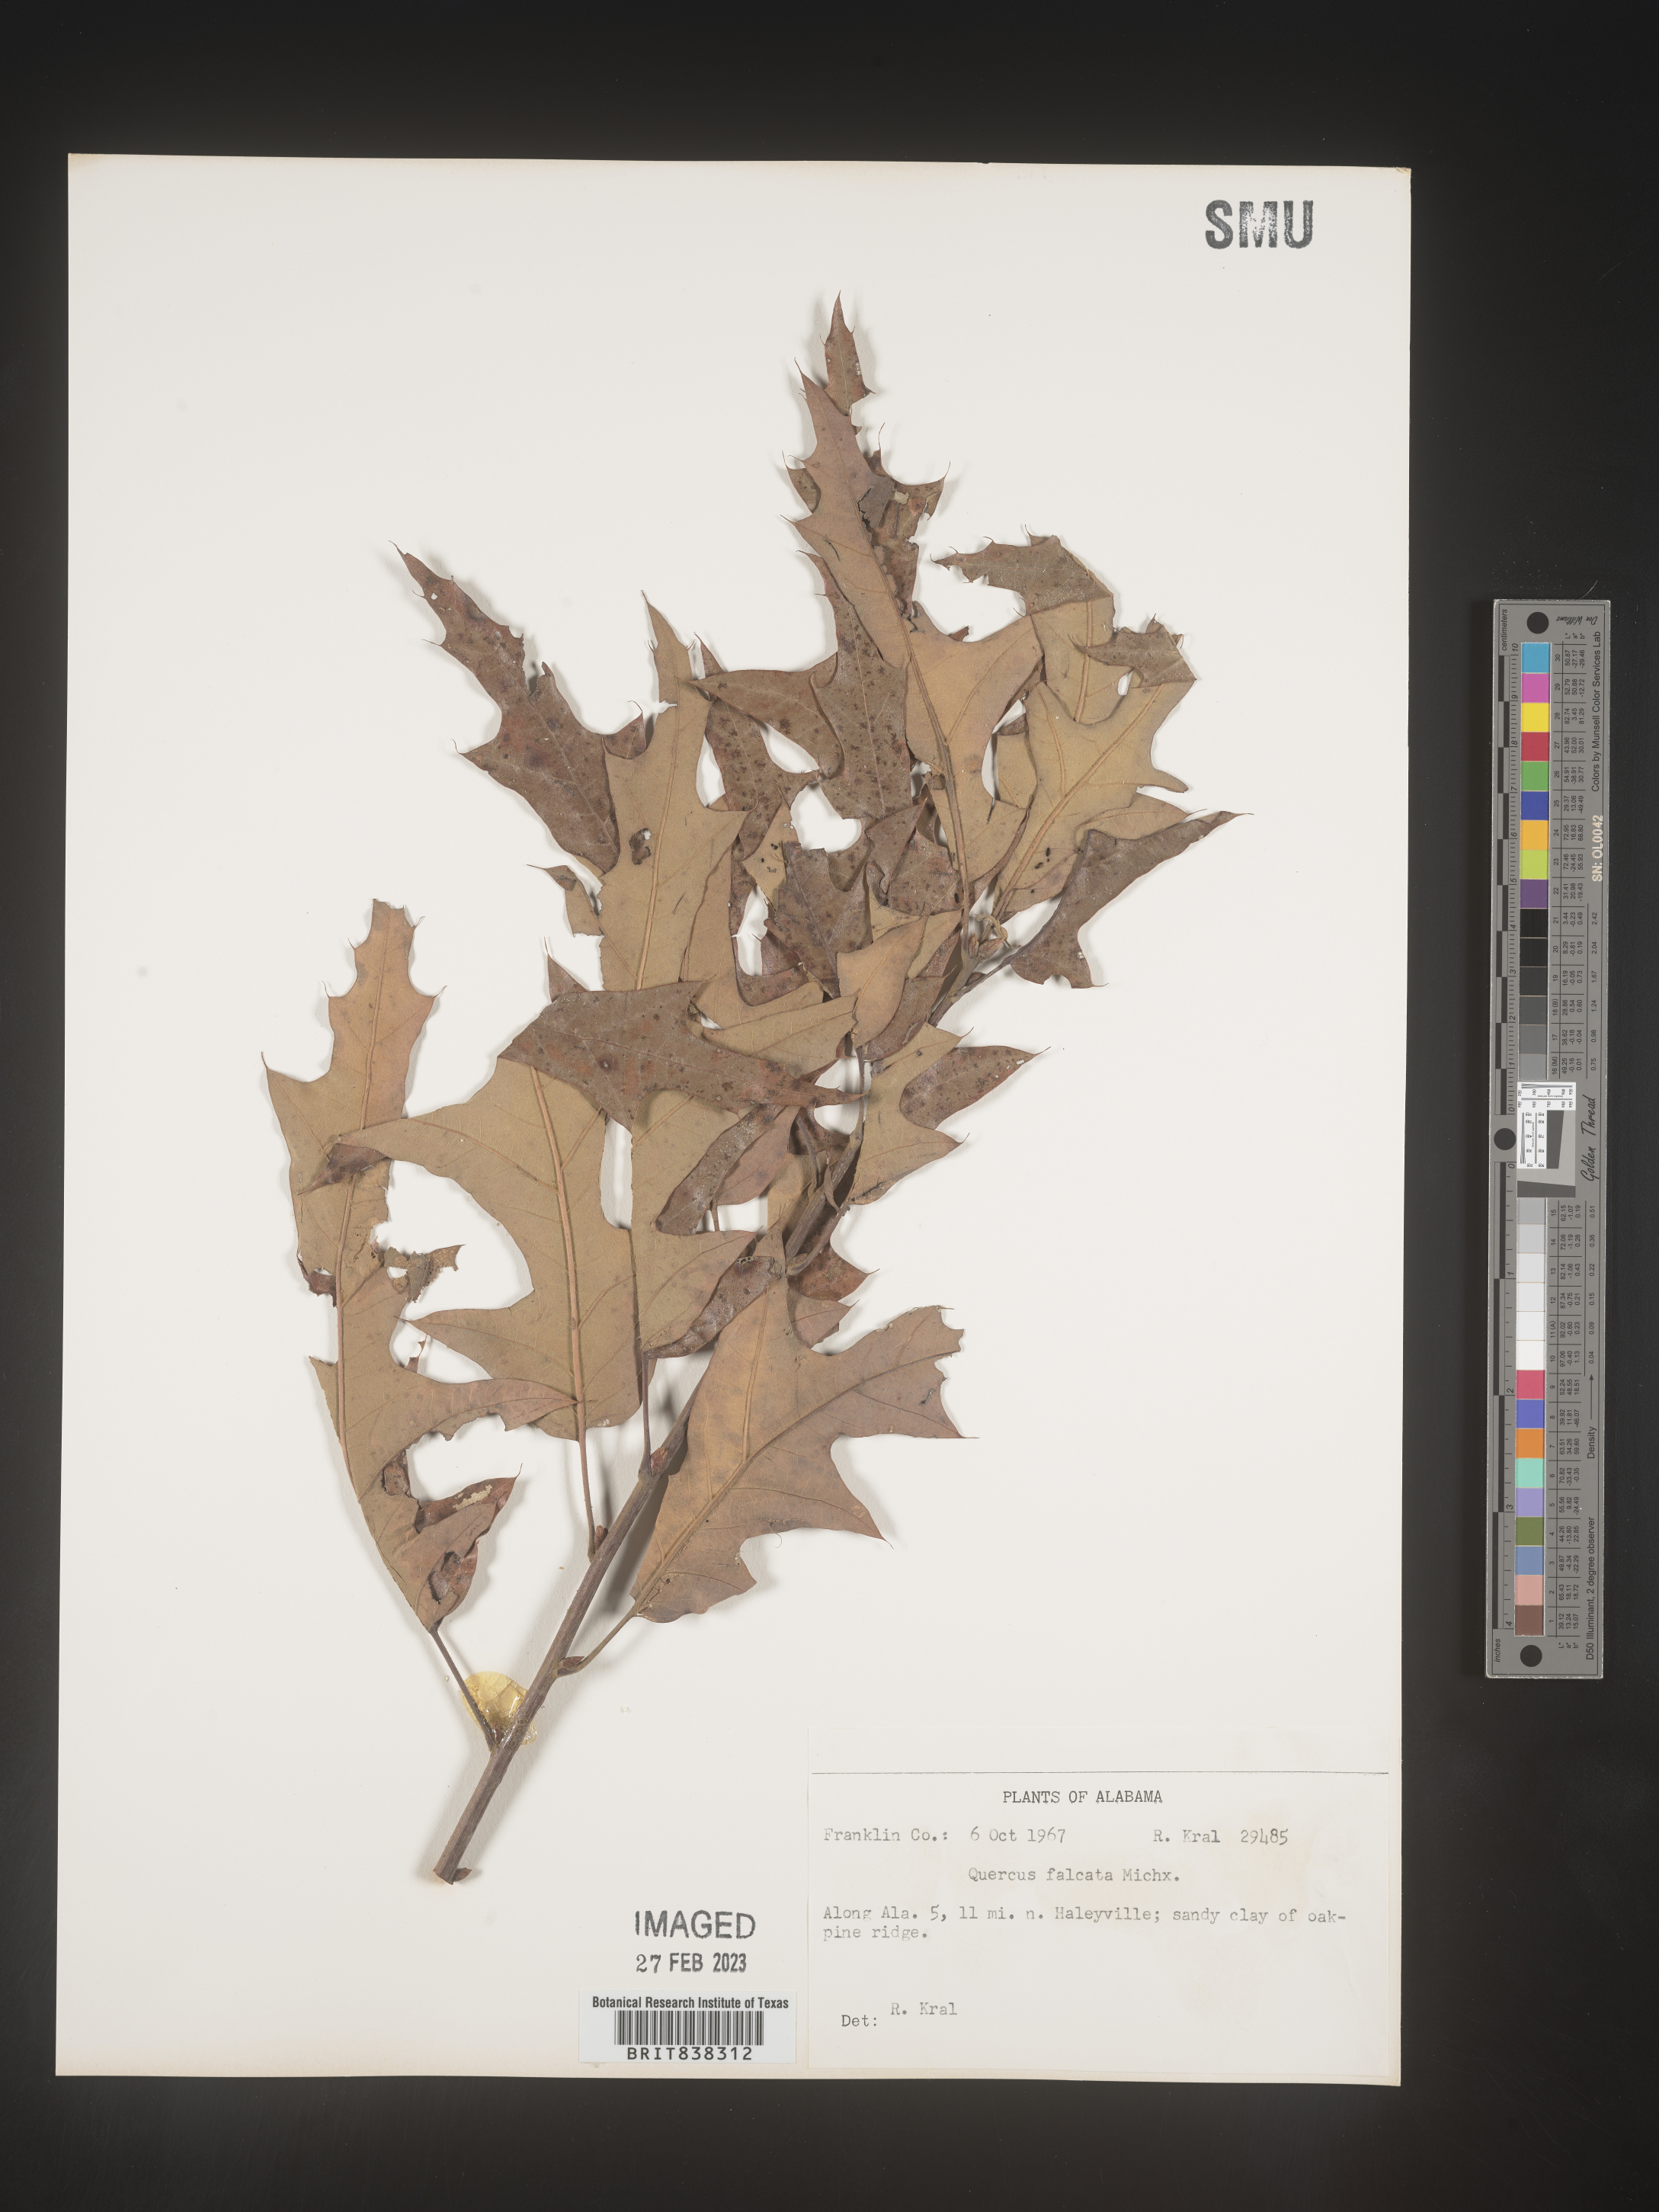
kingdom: Plantae
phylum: Tracheophyta
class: Magnoliopsida
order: Fagales
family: Fagaceae
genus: Quercus
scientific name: Quercus falcata
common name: Southern red oak
